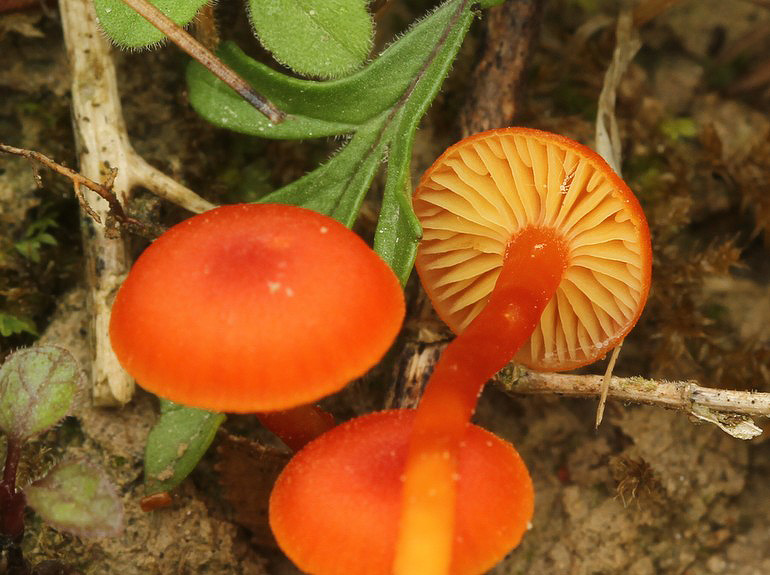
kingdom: Fungi
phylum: Basidiomycota
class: Agaricomycetes
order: Agaricales
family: Hygrophoraceae
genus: Hygrocybe
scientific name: Hygrocybe calciphila
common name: kalk-vokshat
